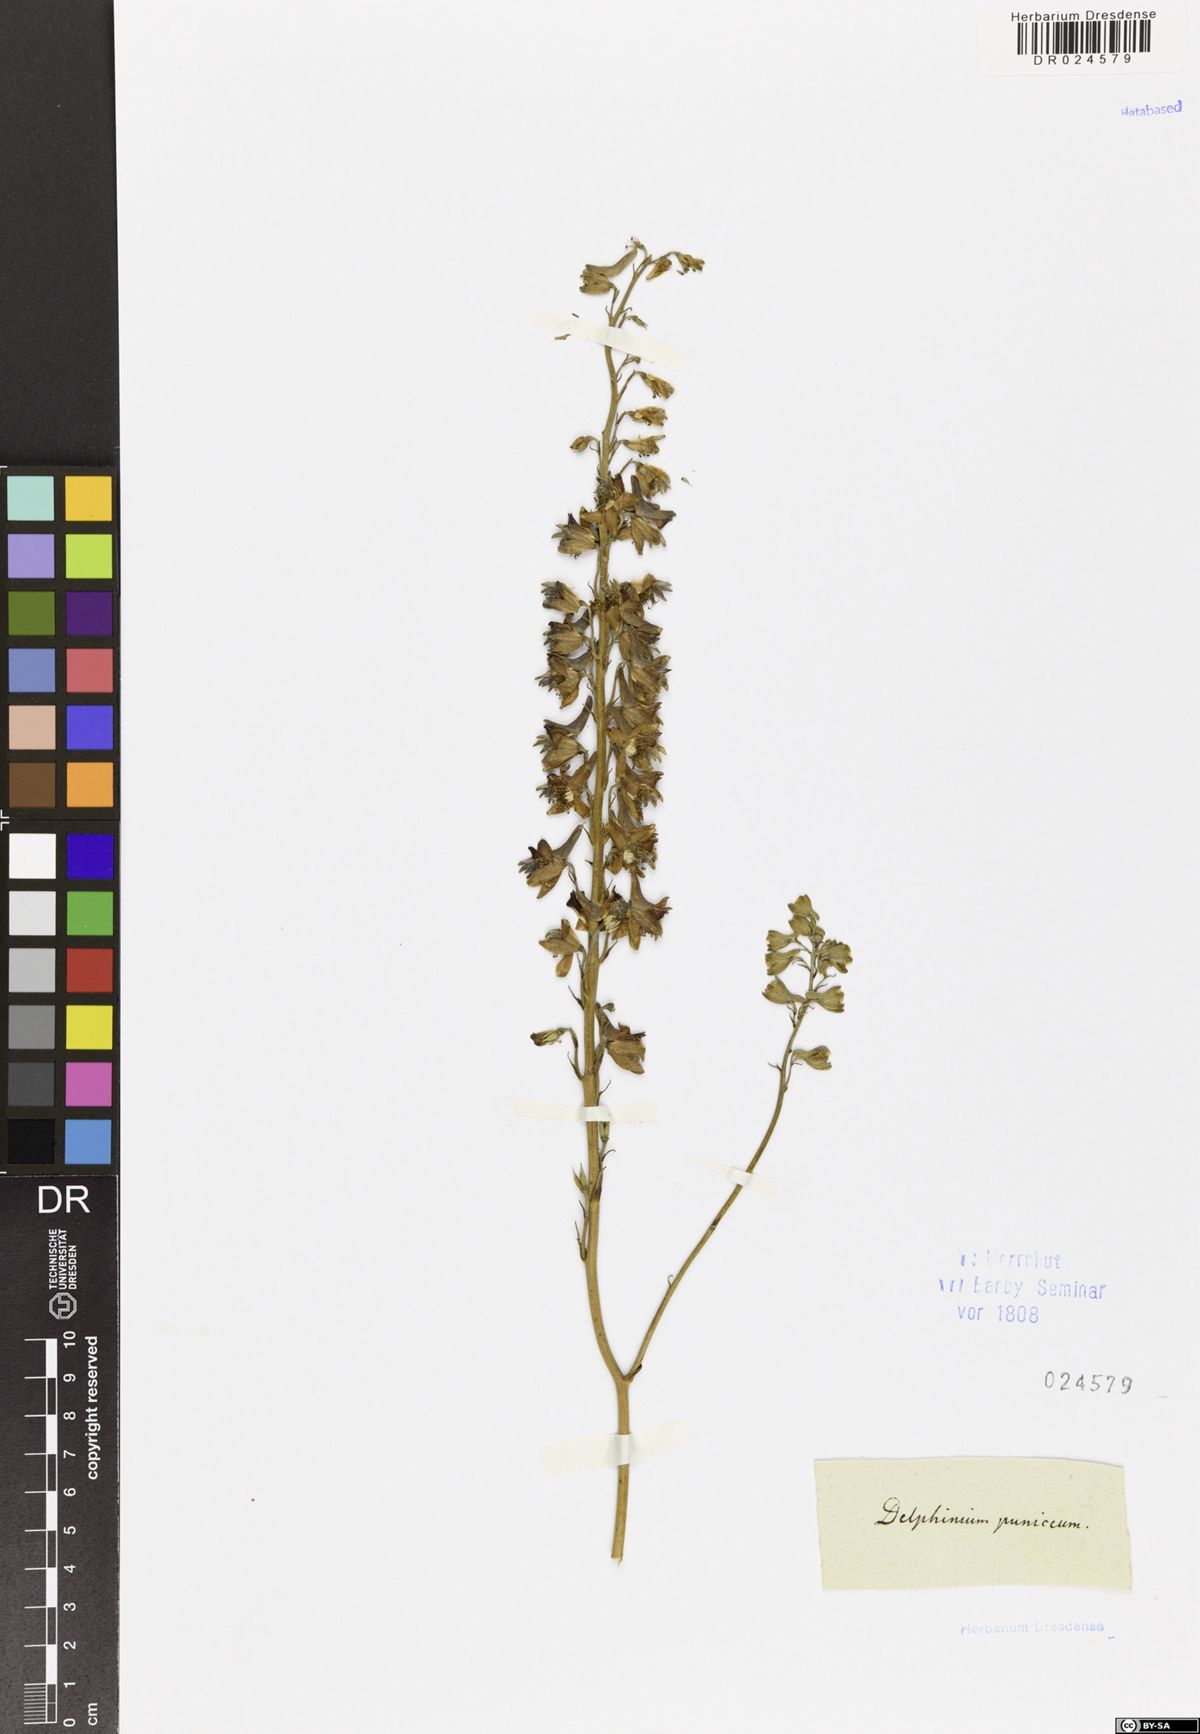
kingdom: Plantae
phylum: Tracheophyta
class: Magnoliopsida
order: Ranunculales
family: Ranunculaceae
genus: Delphinium
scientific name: Delphinium puniceum
